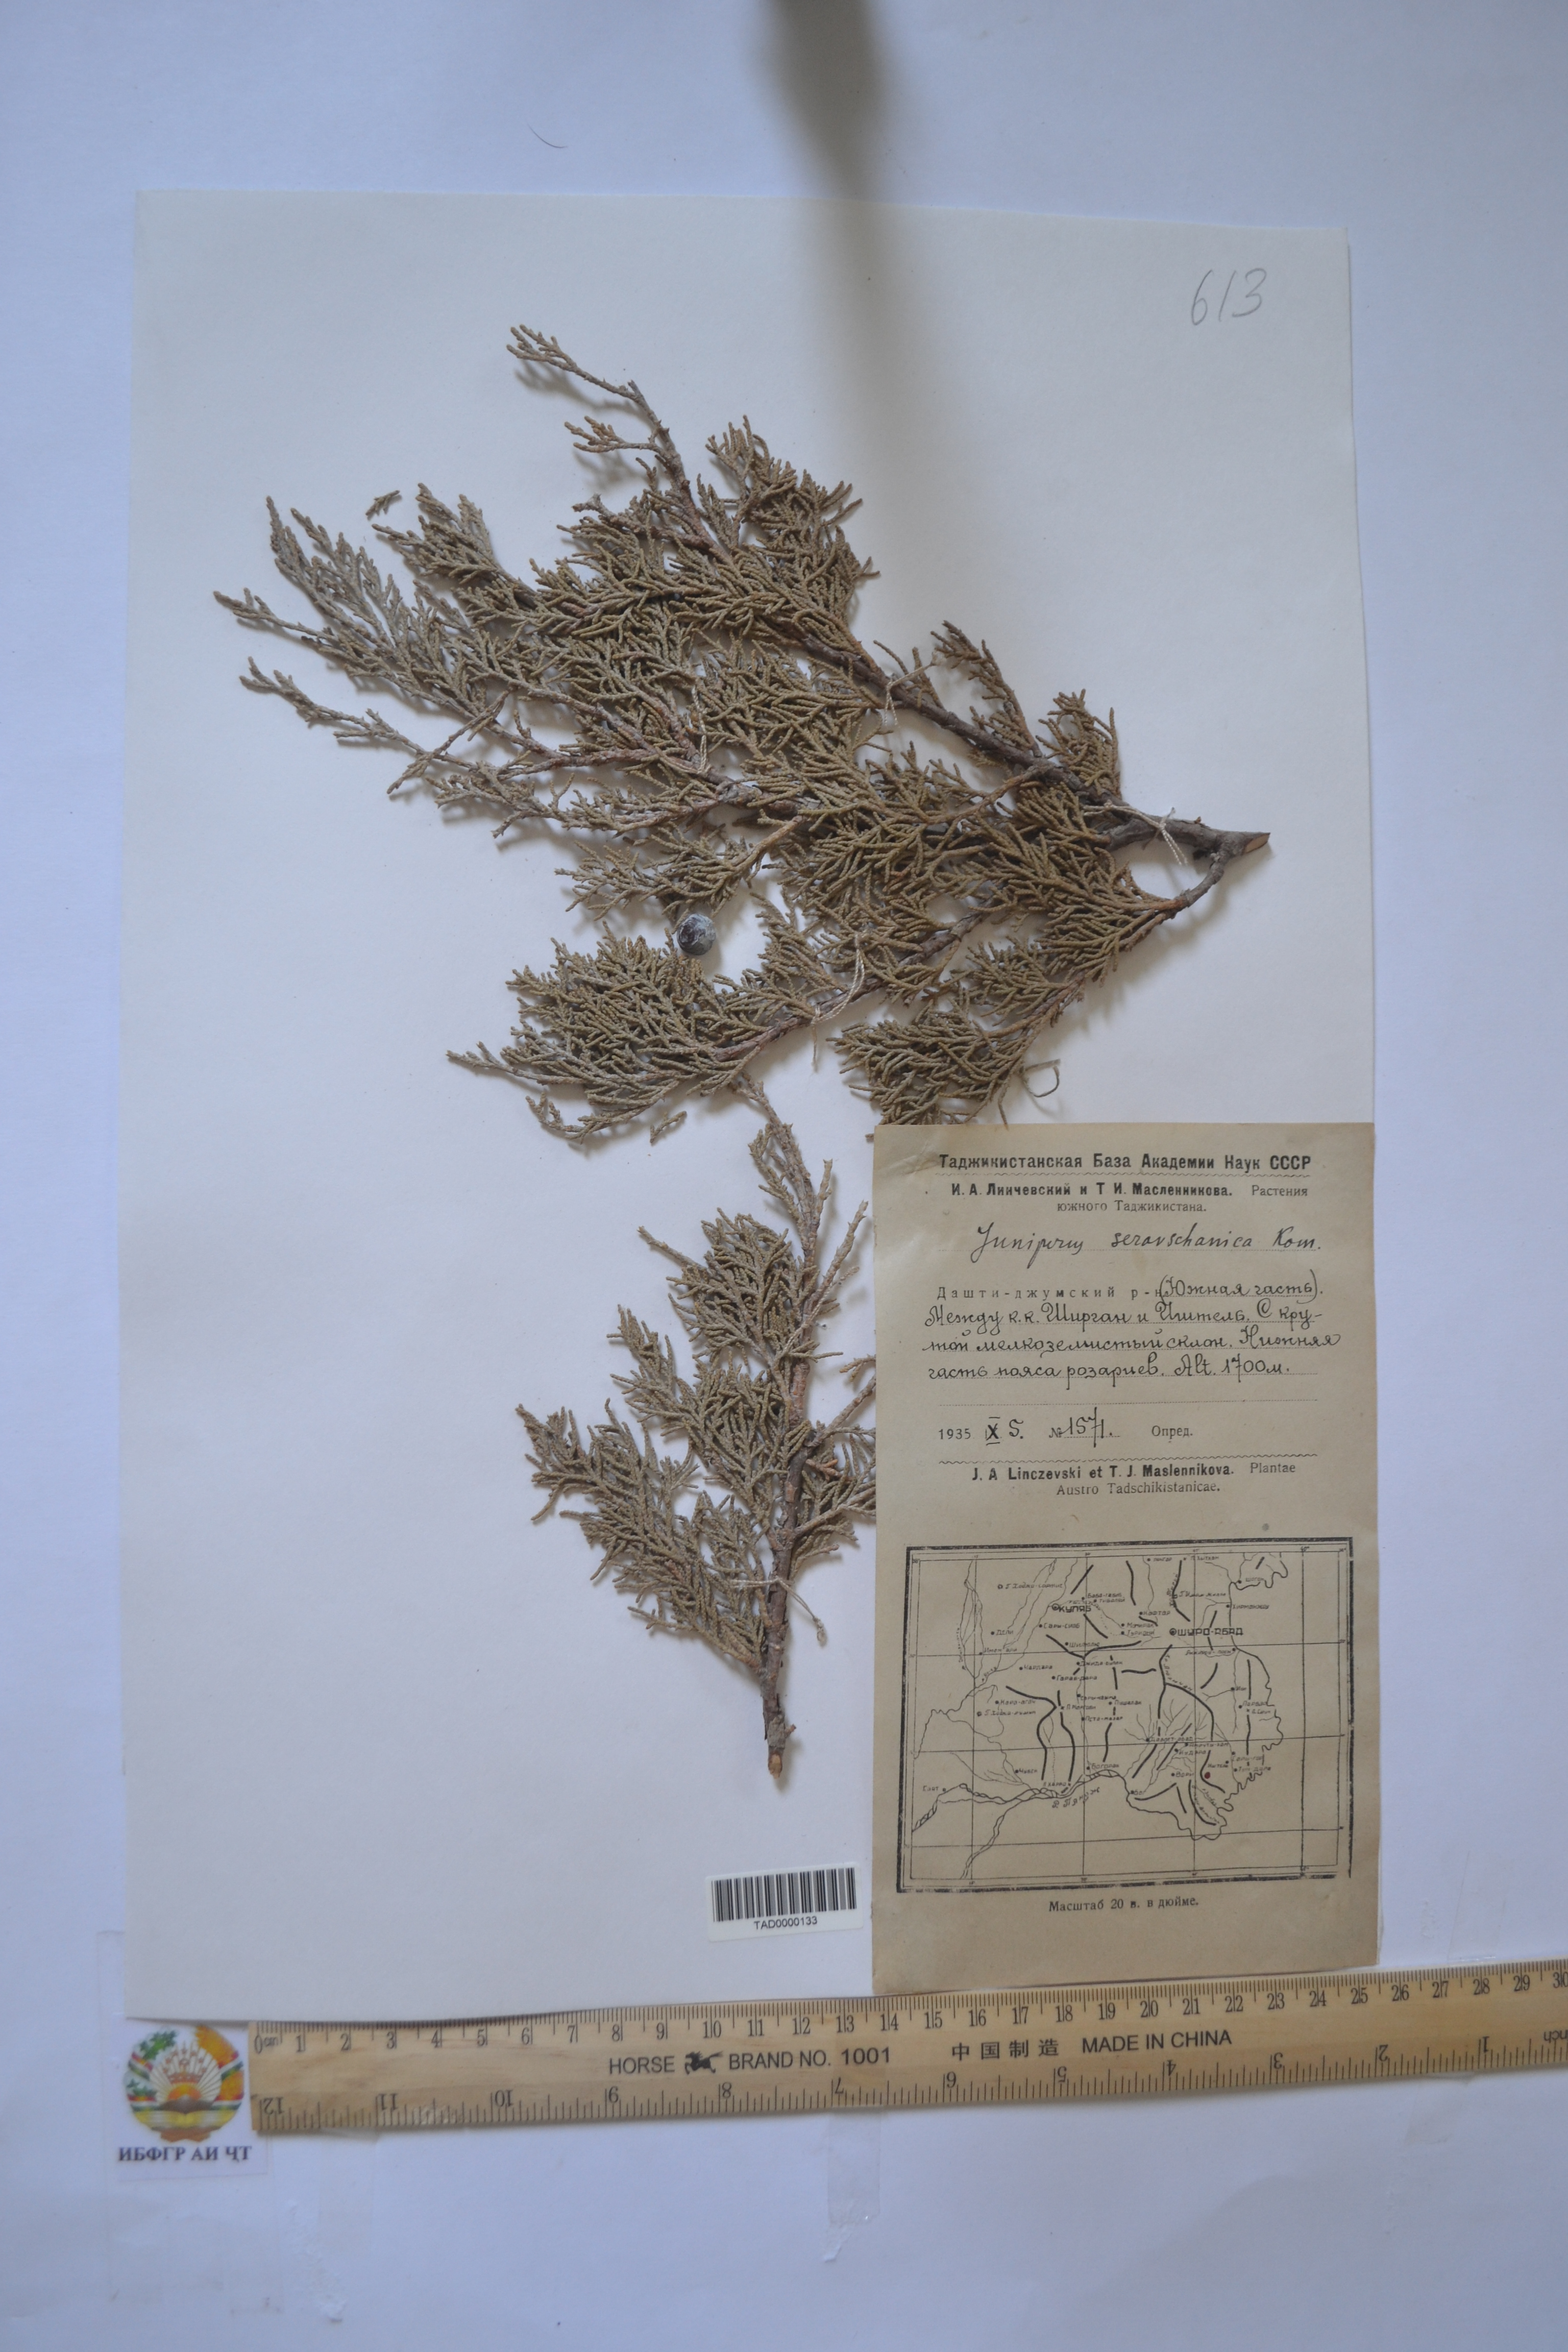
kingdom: Plantae
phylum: Tracheophyta
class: Pinopsida
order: Pinales
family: Cupressaceae
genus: Juniperus
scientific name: Juniperus excelsa
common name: Crimean juniper
